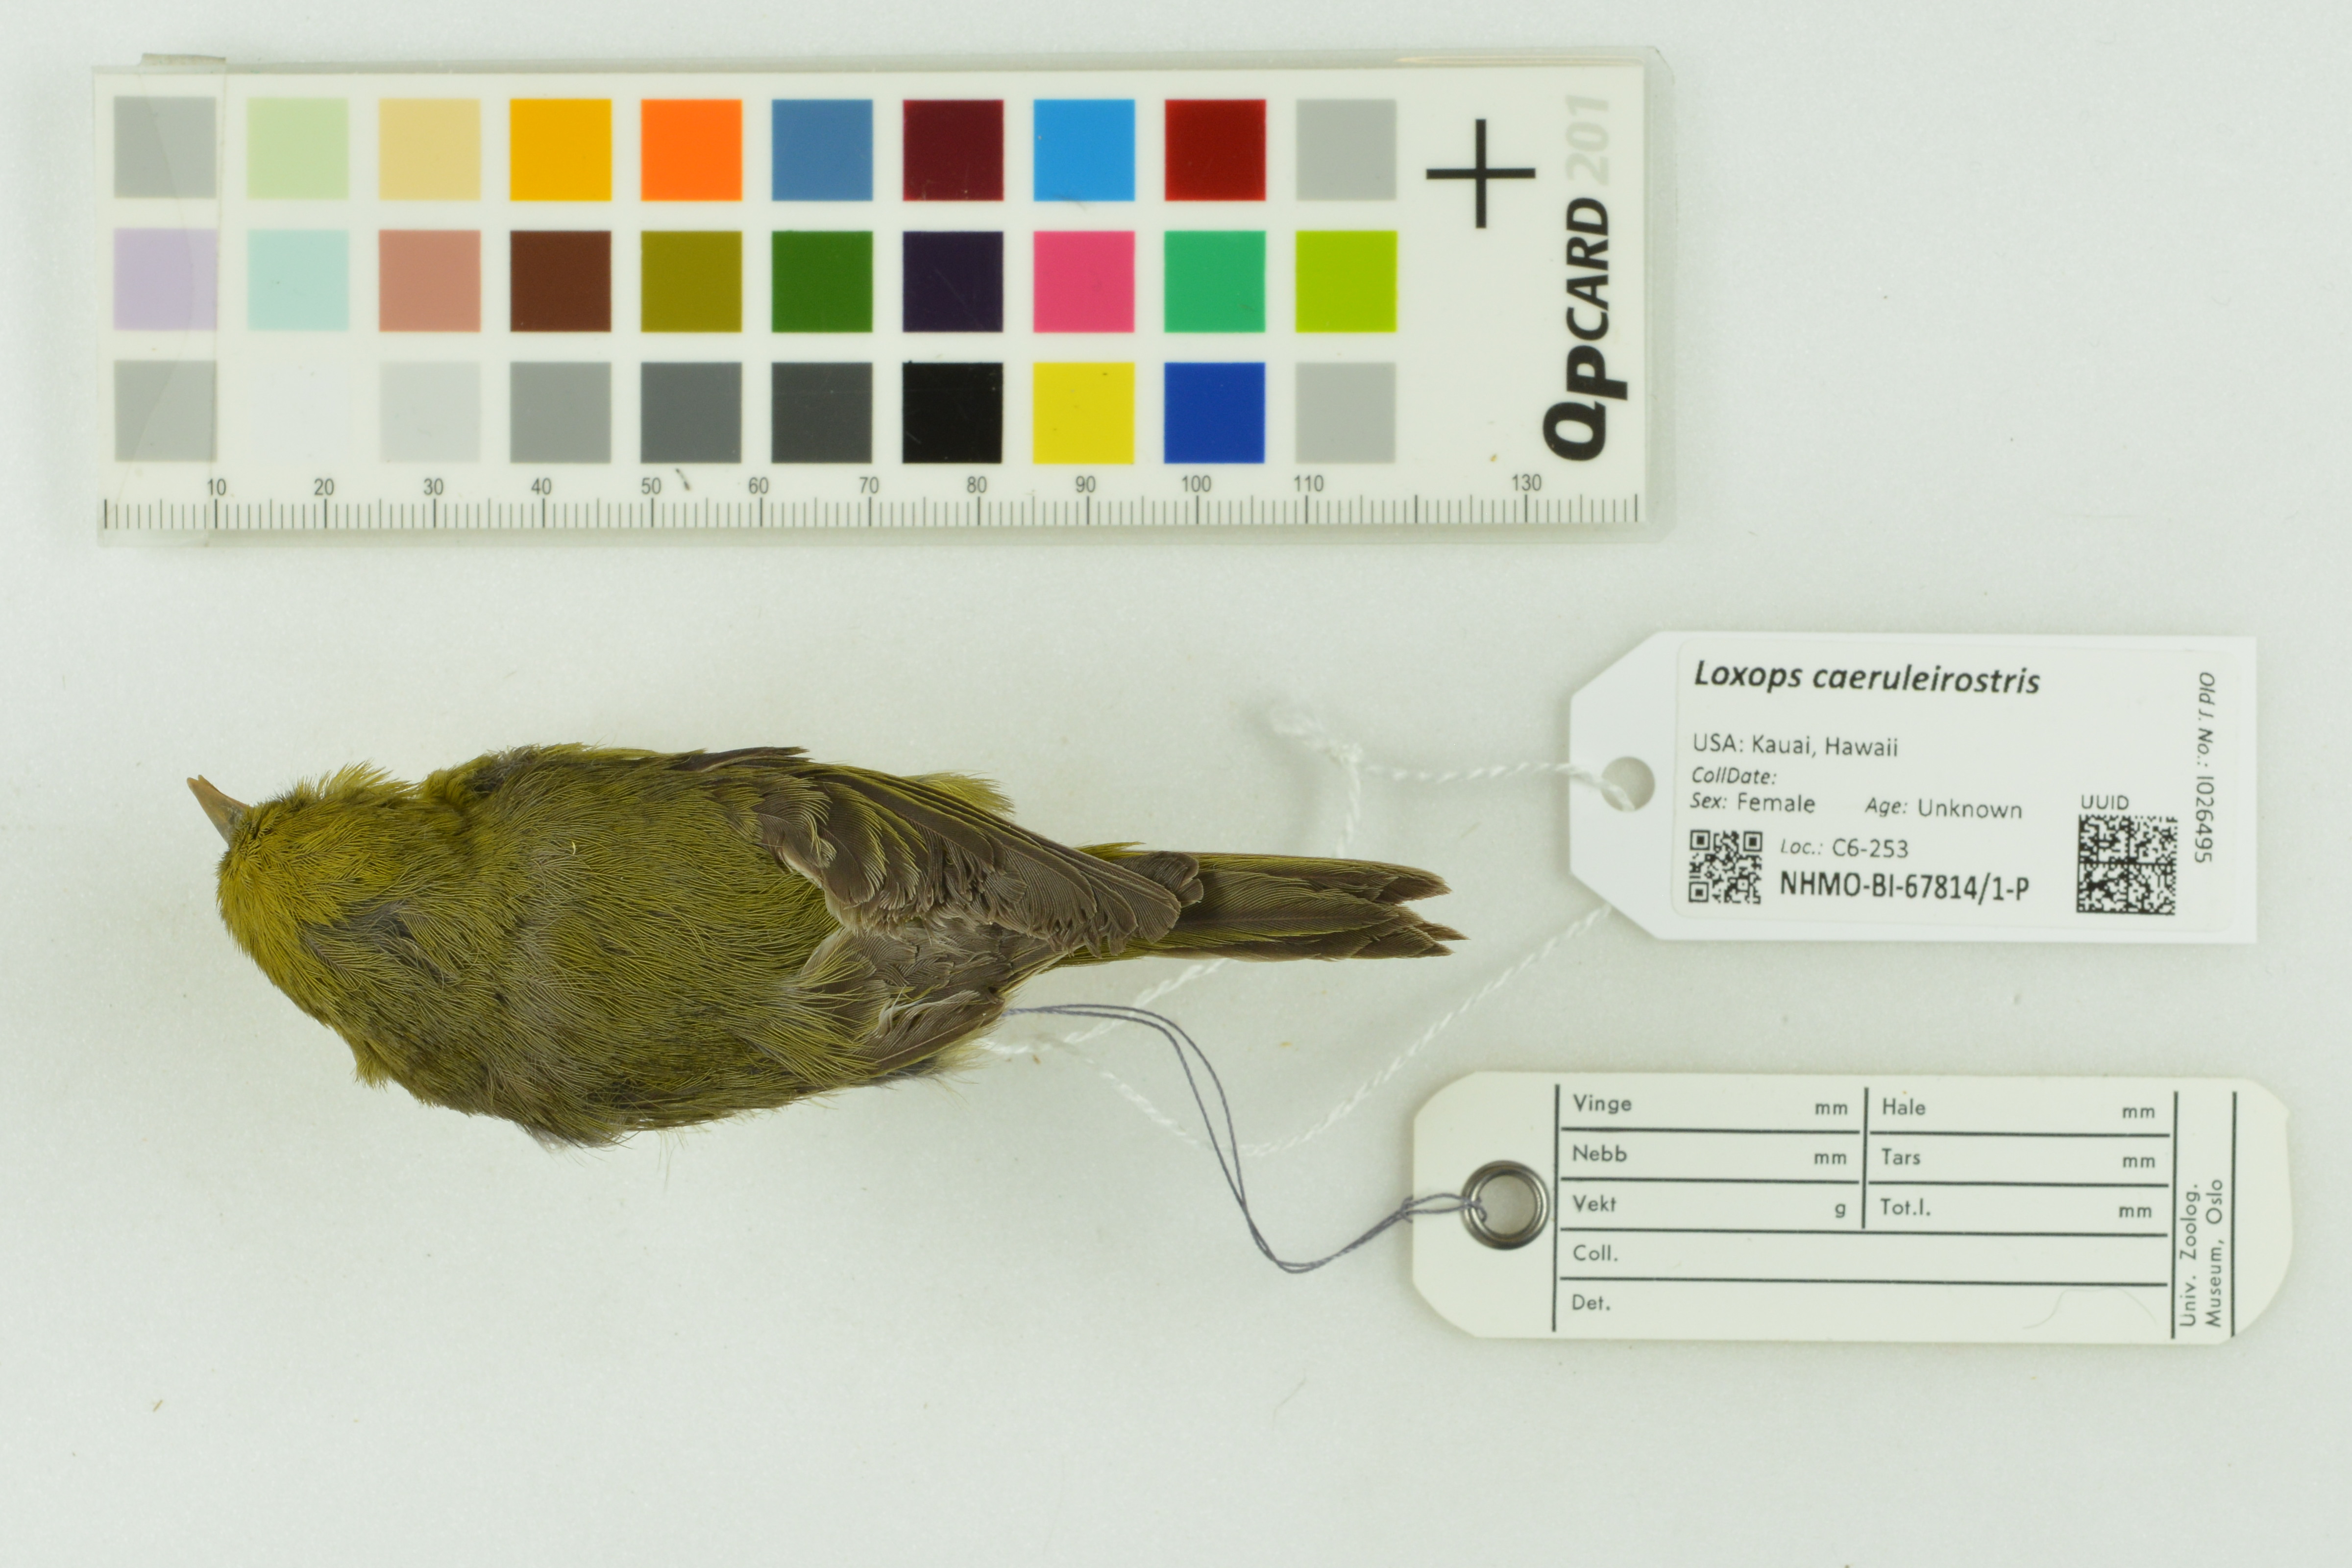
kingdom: Animalia
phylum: Chordata
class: Aves
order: Passeriformes
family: Fringillidae
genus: Loxops
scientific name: Loxops caeruleirostris
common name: Akekee
